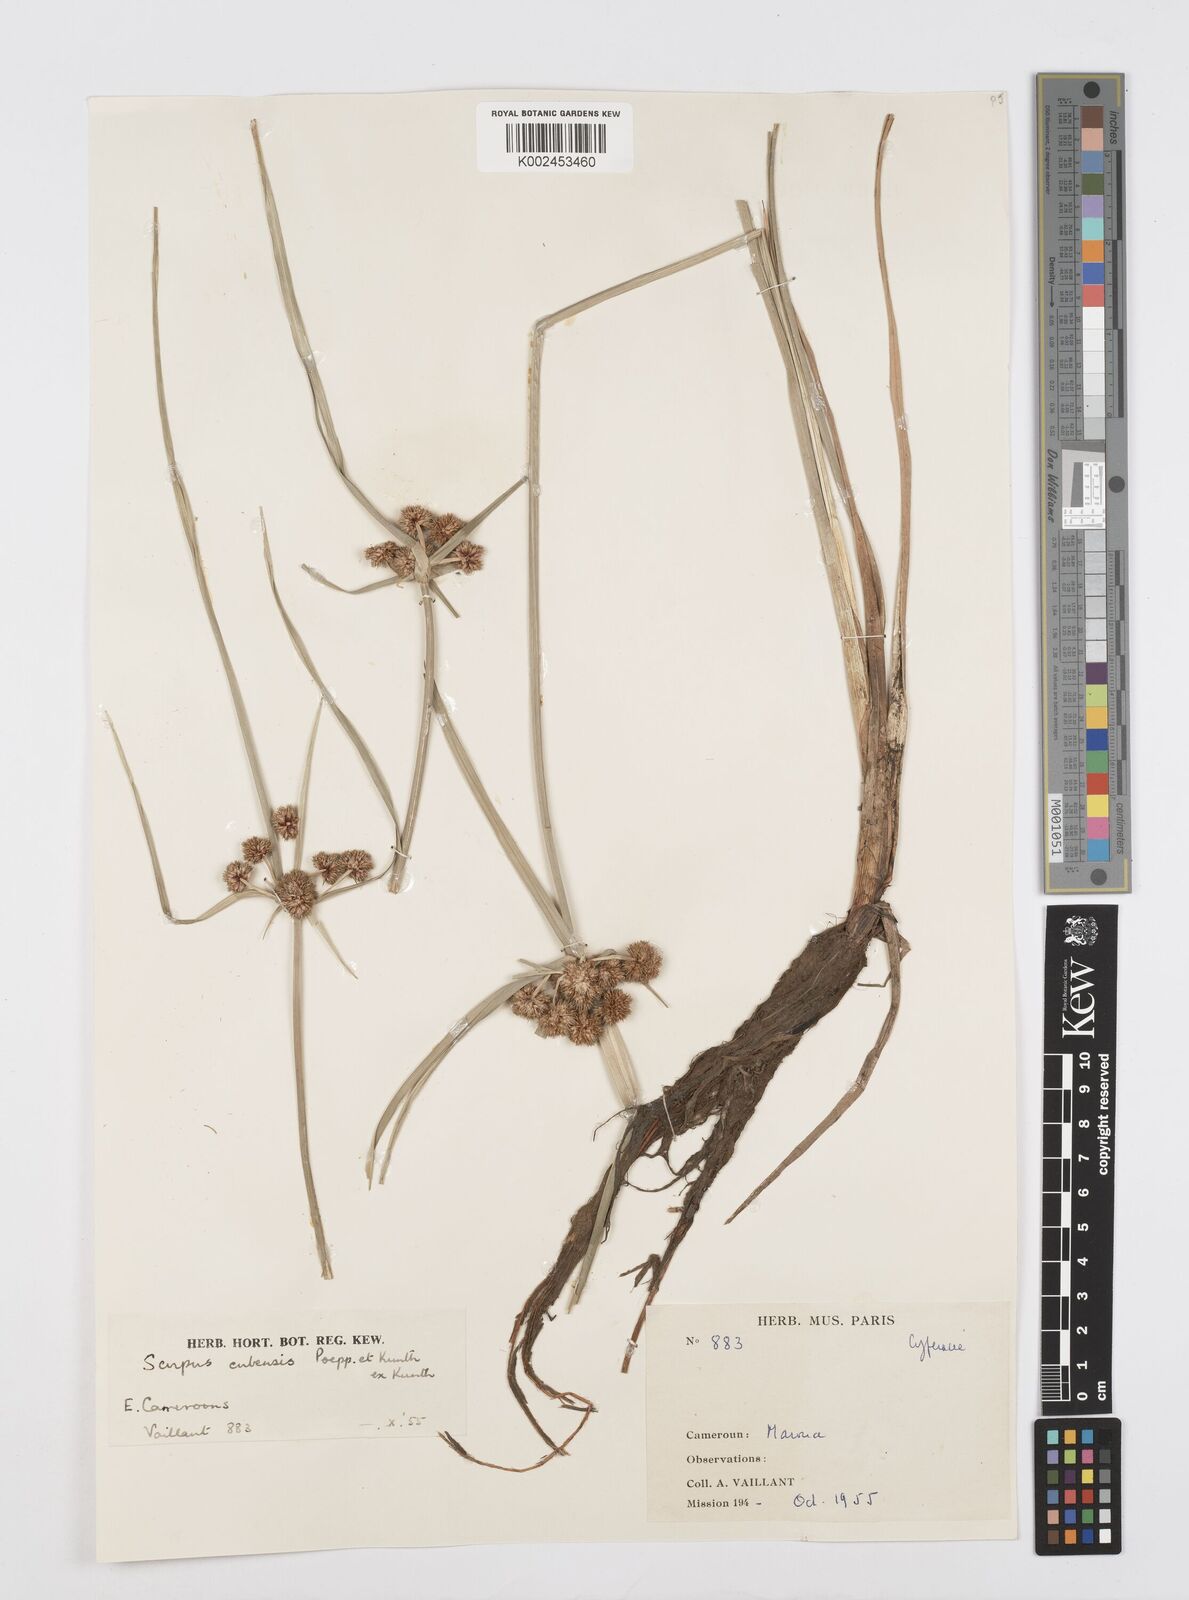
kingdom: Plantae
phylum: Tracheophyta
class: Liliopsida
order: Poales
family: Cyperaceae
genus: Cyperus
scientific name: Cyperus elegans
